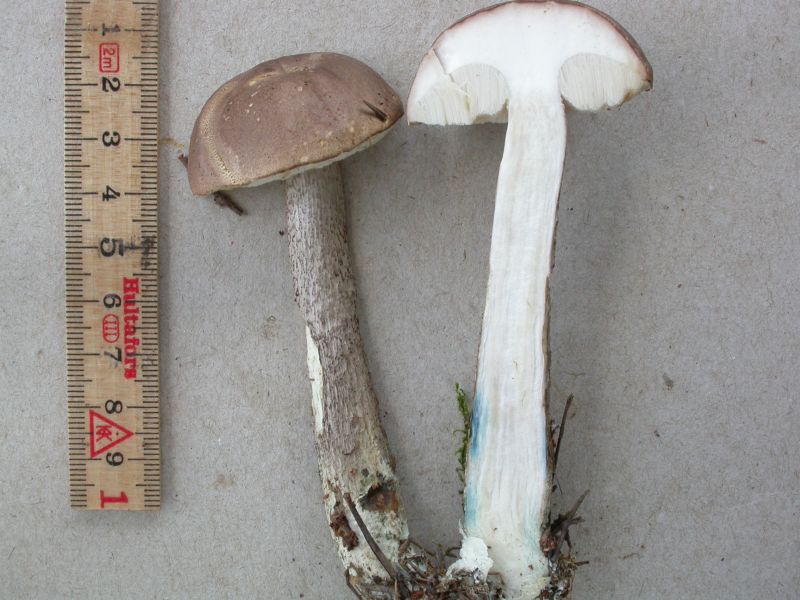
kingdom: Fungi
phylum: Basidiomycota
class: Agaricomycetes
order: Boletales
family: Boletaceae
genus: Leccinum
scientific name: Leccinum schistophilum
